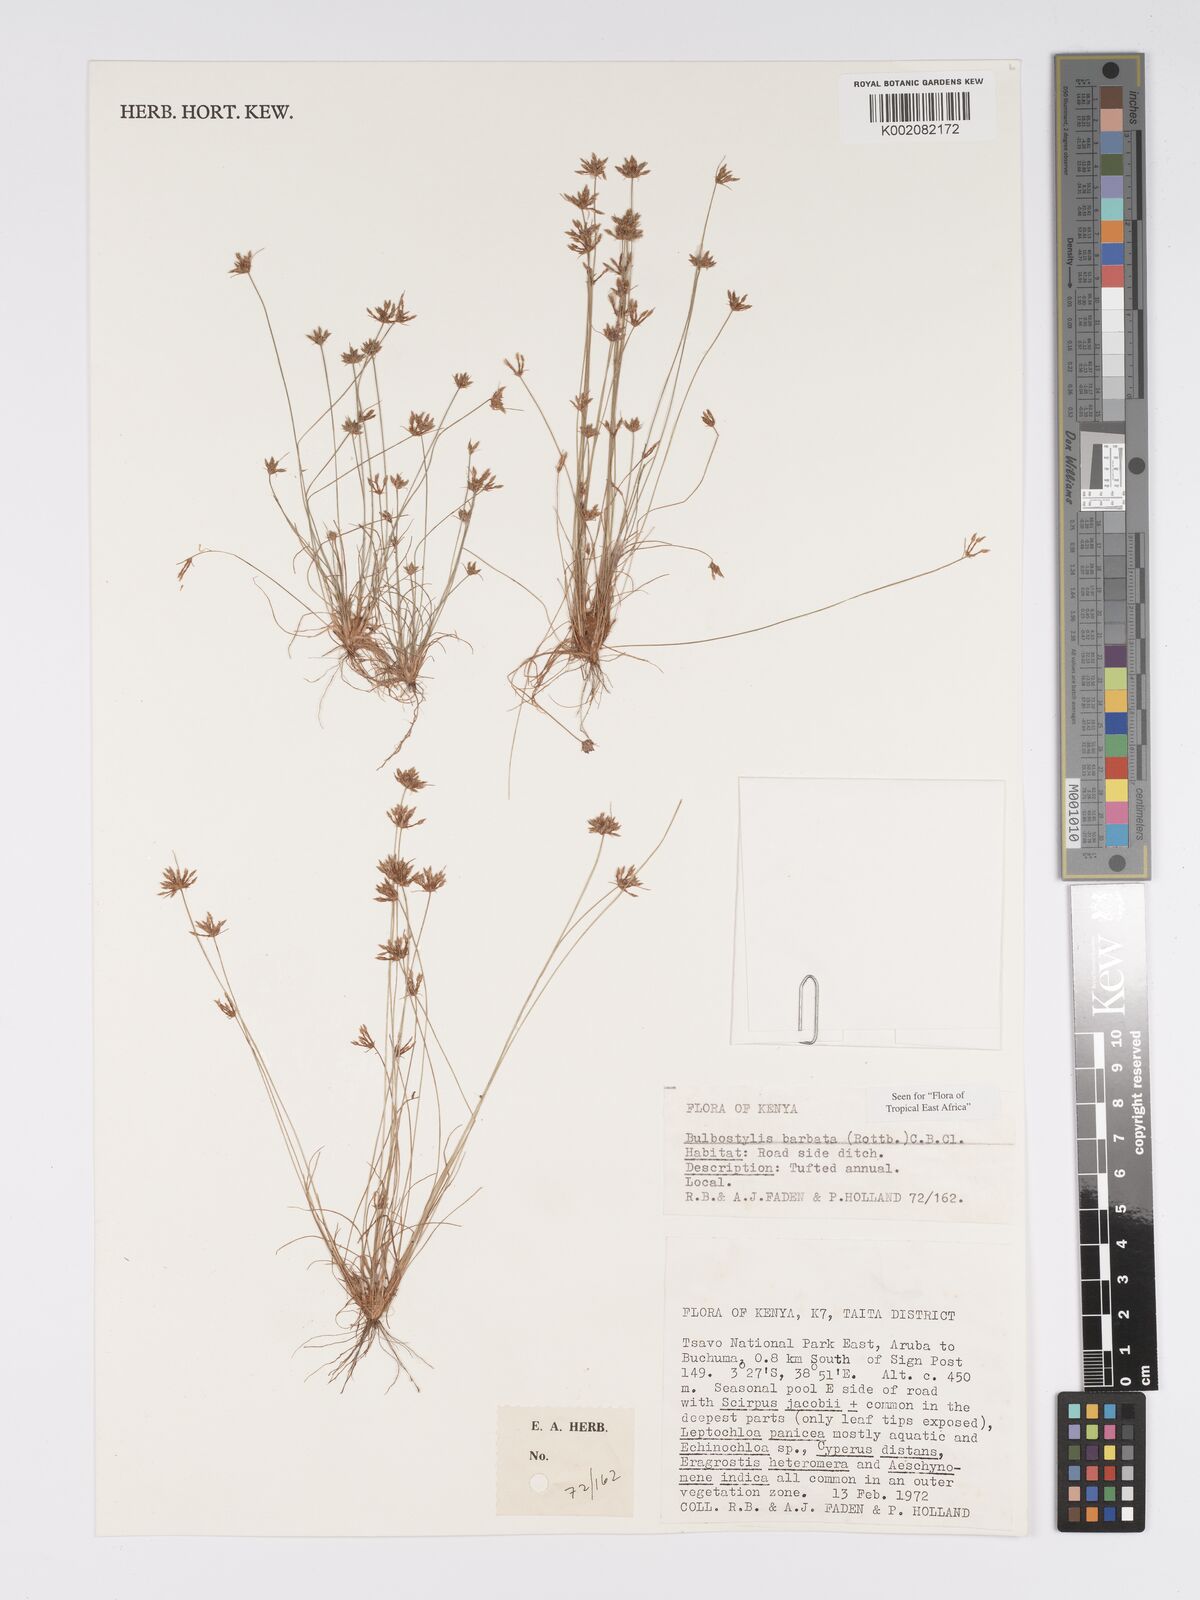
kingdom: Plantae
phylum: Tracheophyta
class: Liliopsida
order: Poales
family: Cyperaceae
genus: Bulbostylis
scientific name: Bulbostylis barbata
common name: Watergrass
